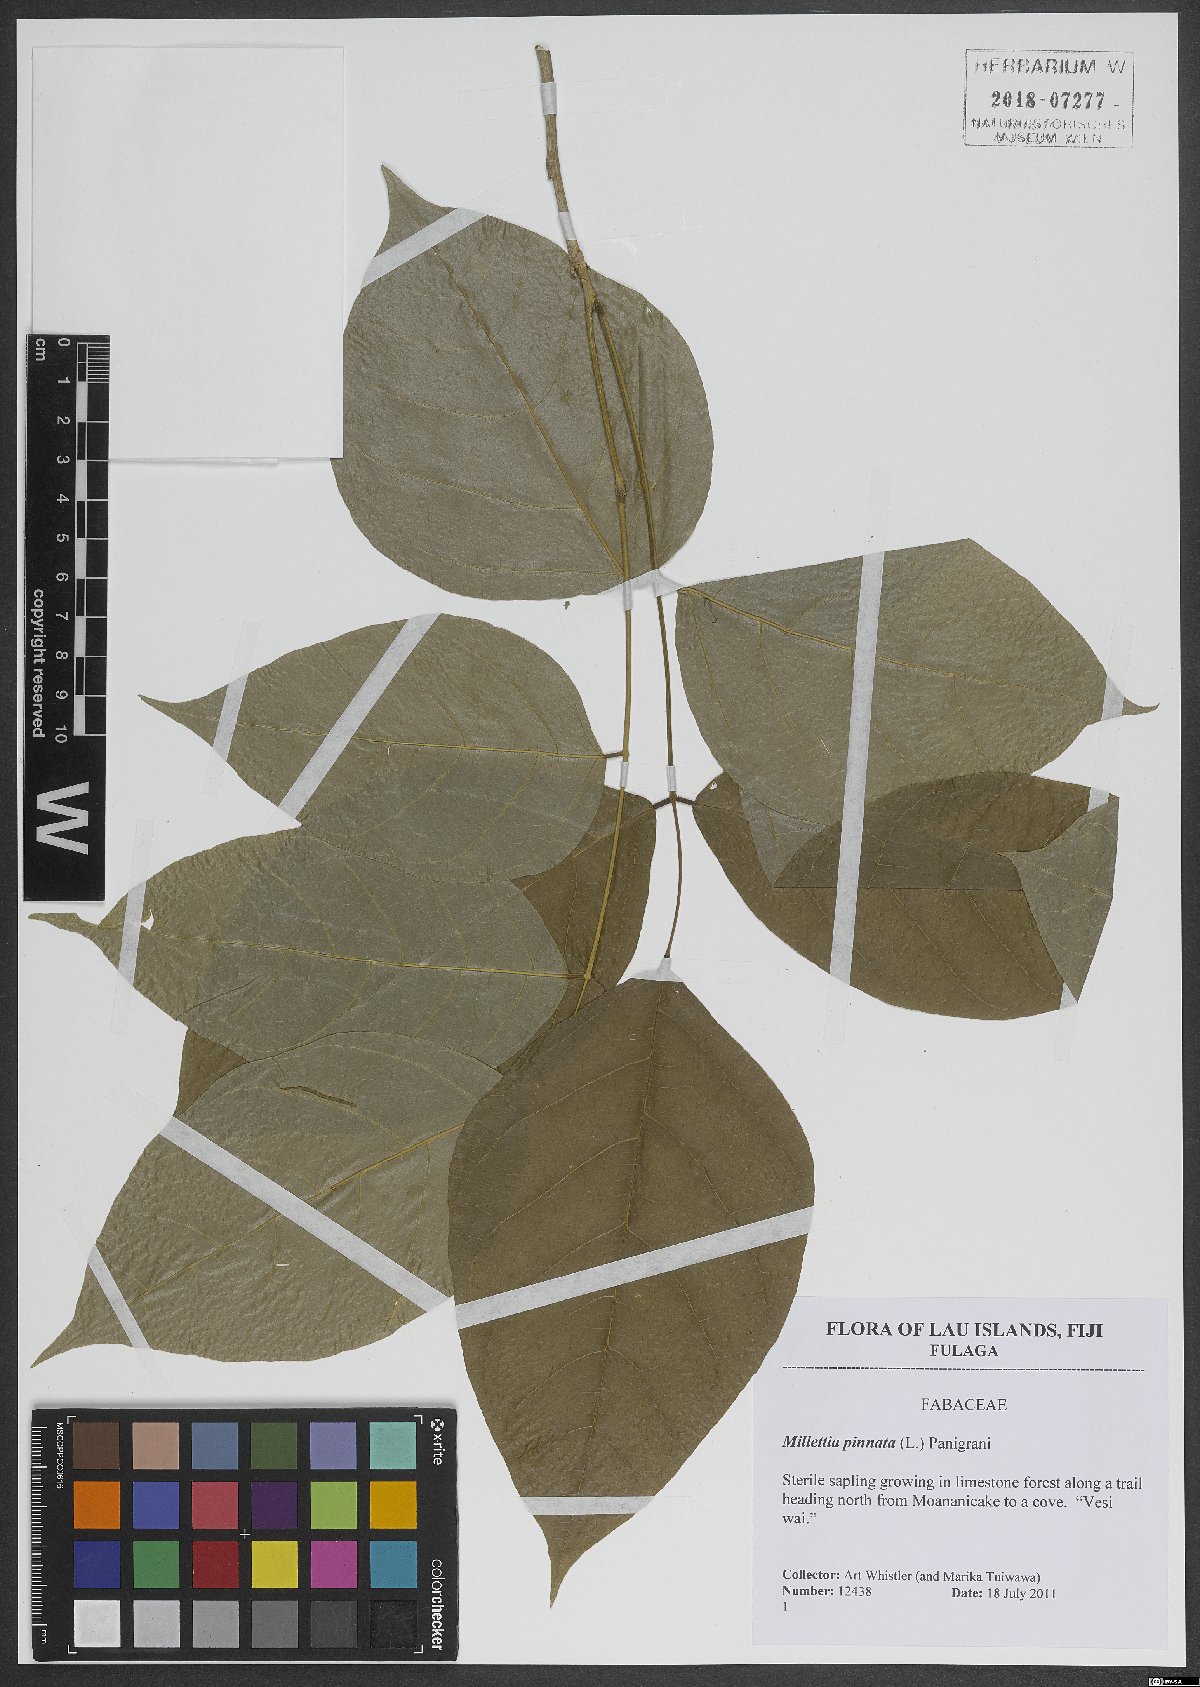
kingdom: Plantae
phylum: Tracheophyta
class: Magnoliopsida
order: Fabales
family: Fabaceae
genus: Pongamia
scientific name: Pongamia pinnata
